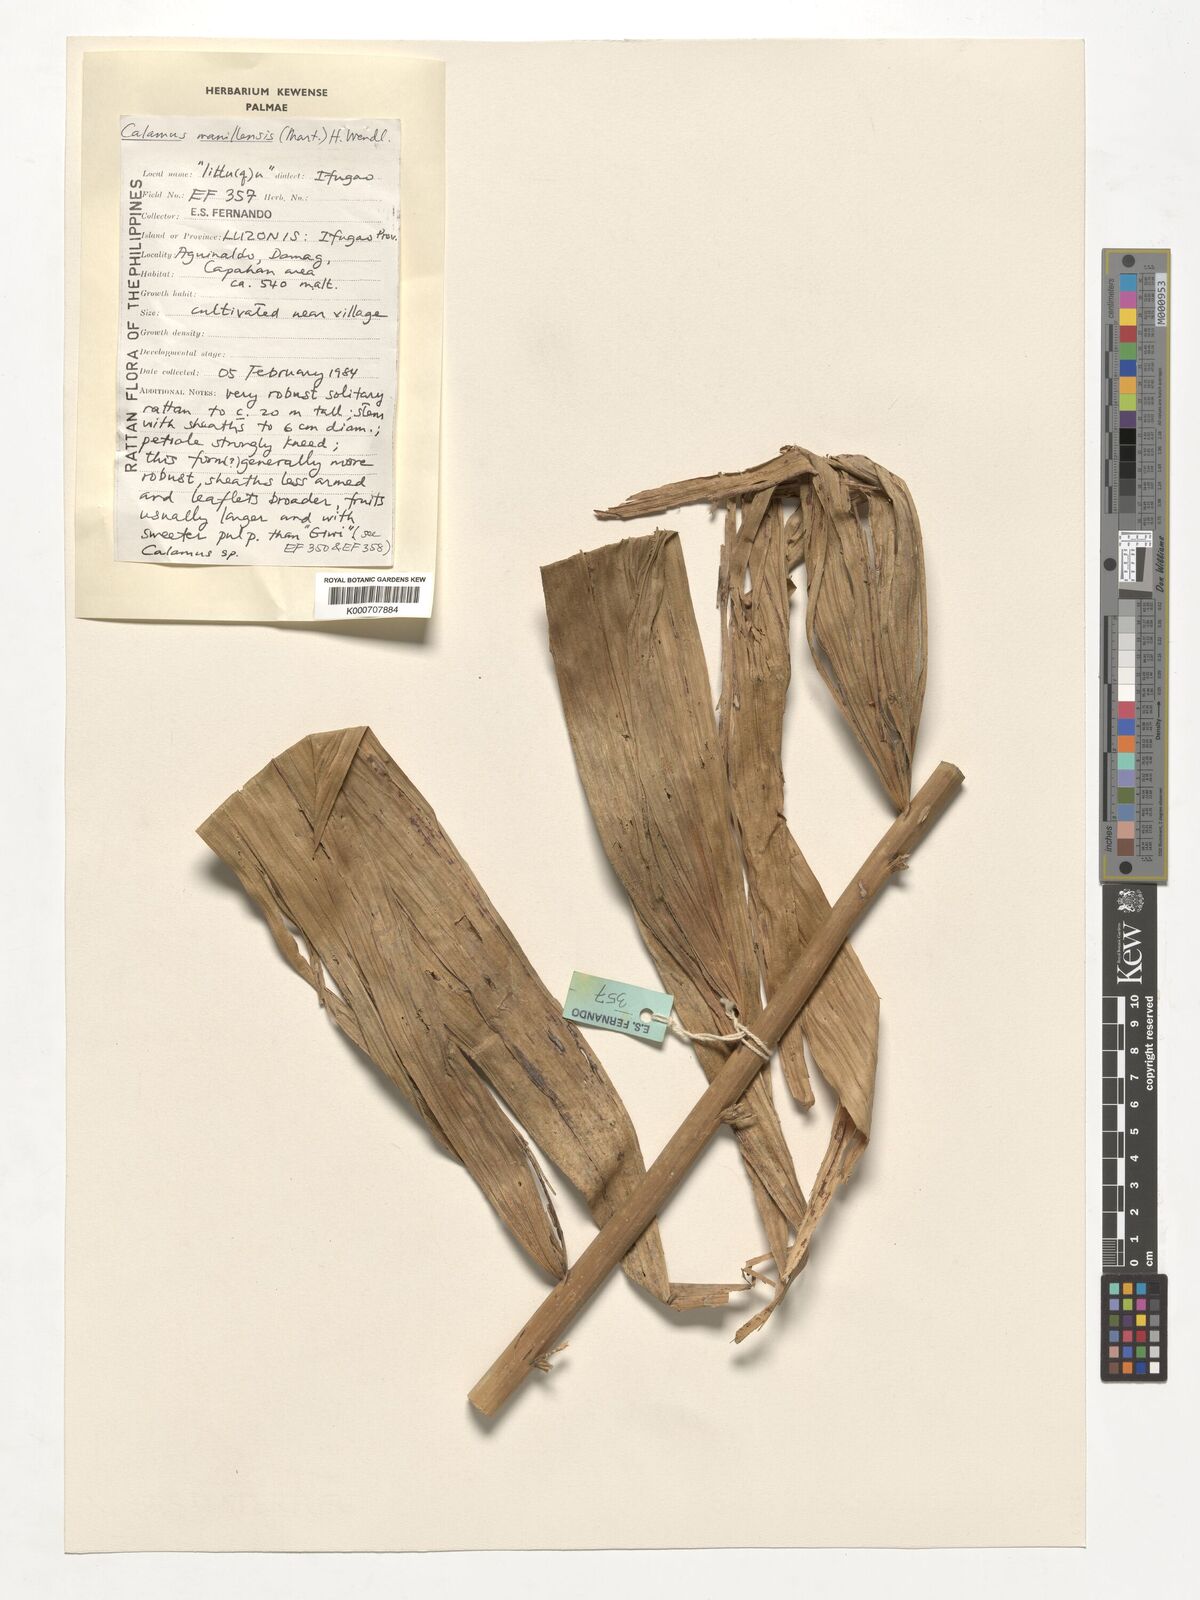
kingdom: Plantae
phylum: Tracheophyta
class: Liliopsida
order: Arecales
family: Arecaceae
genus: Calamus
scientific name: Calamus manillensis
